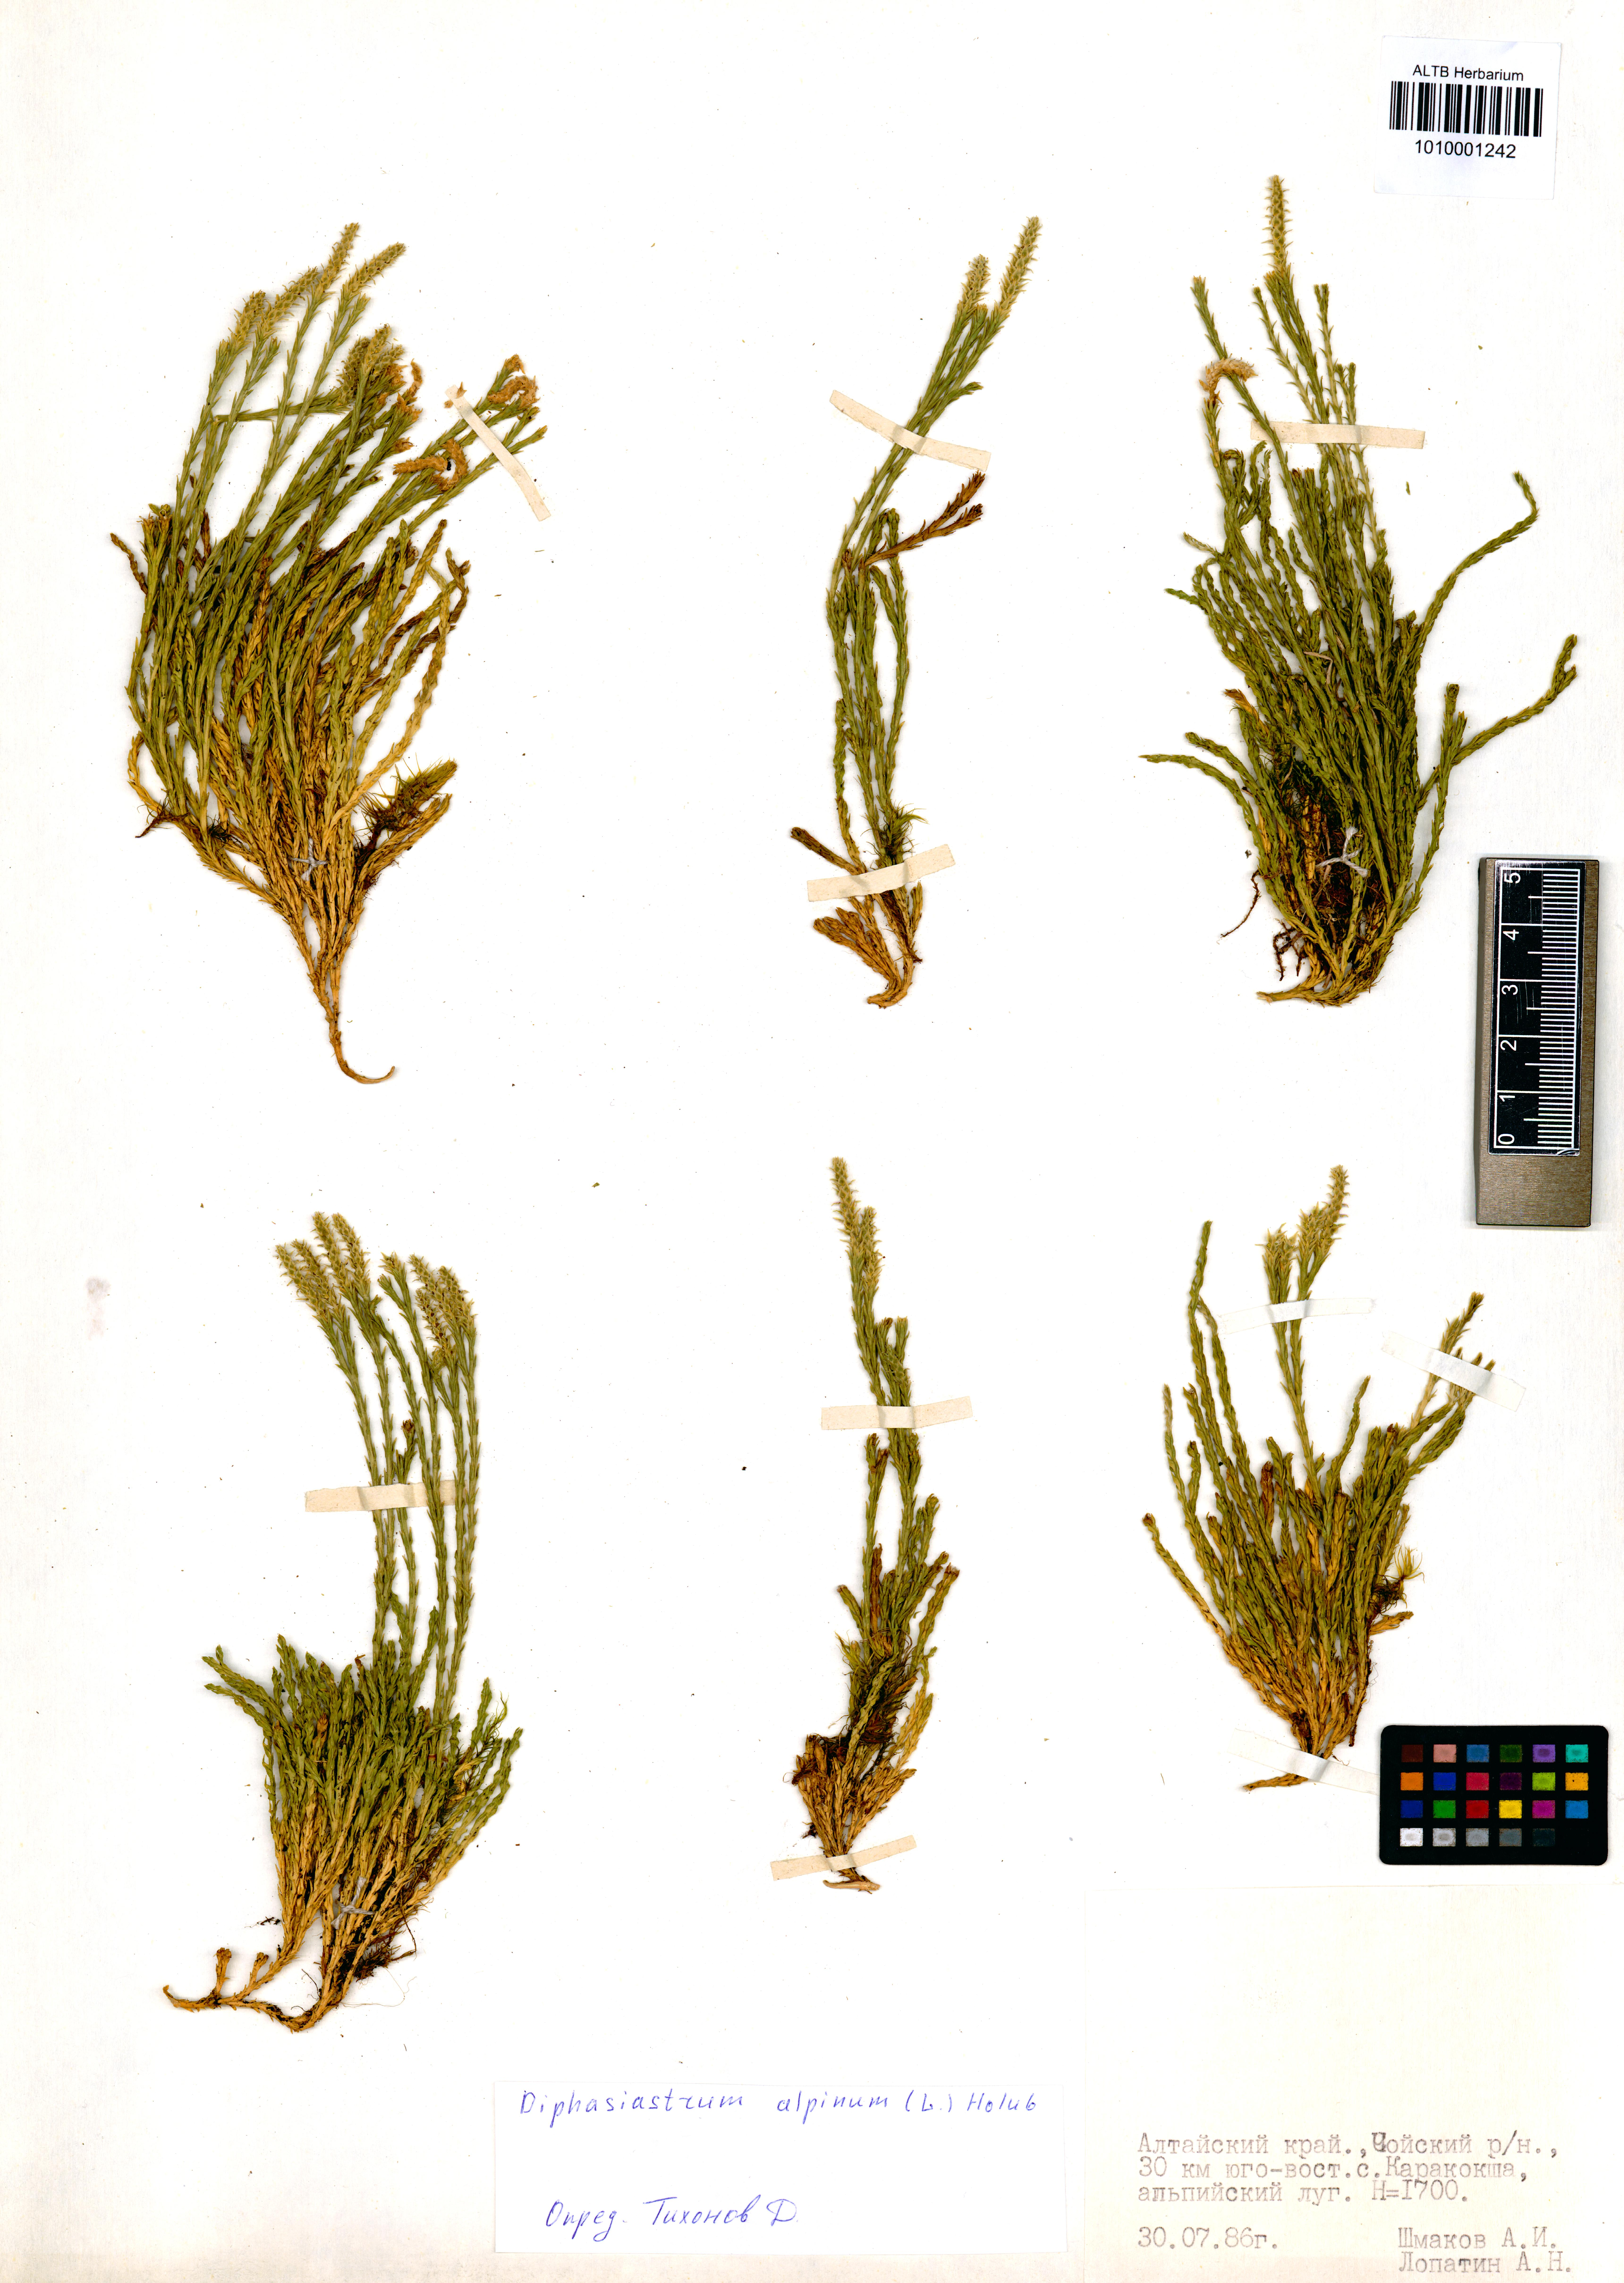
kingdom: Plantae
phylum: Tracheophyta
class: Lycopodiopsida
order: Lycopodiales
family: Lycopodiaceae
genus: Diphasiastrum
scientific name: Diphasiastrum alpinum
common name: Alpine clubmoss
